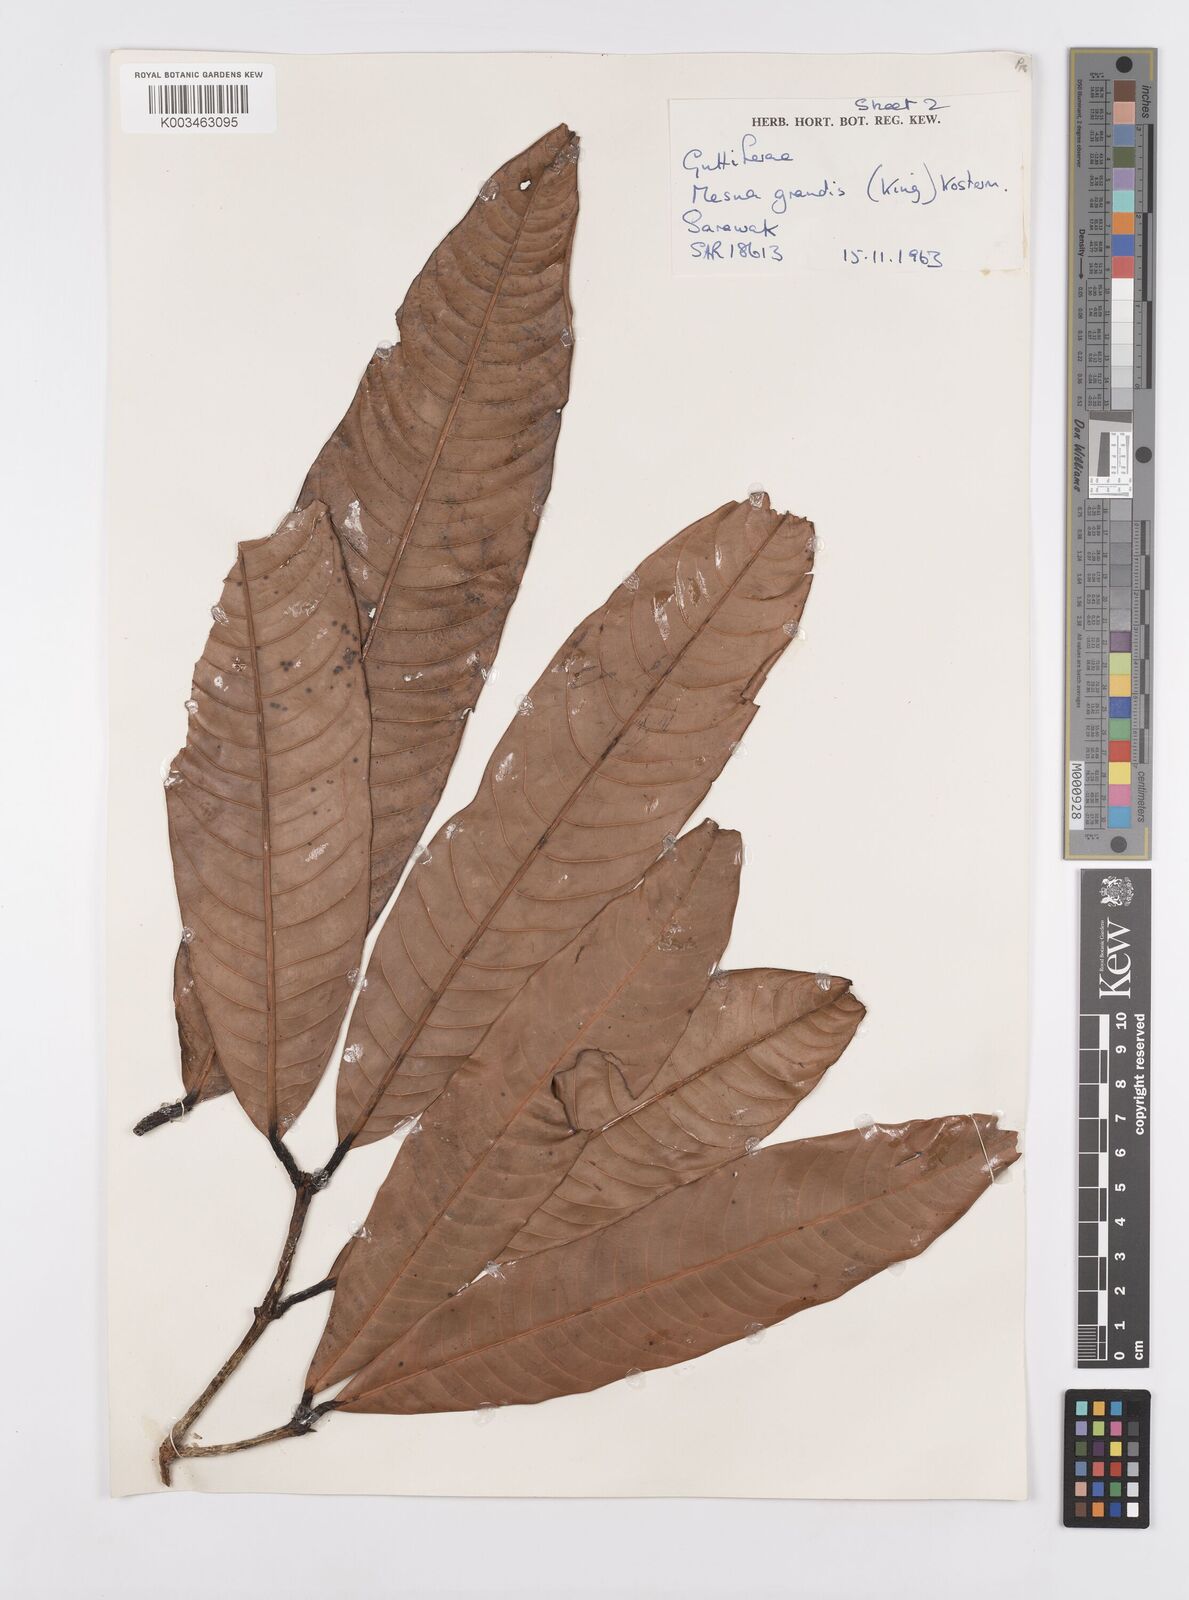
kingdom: Plantae
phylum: Tracheophyta
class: Magnoliopsida
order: Malpighiales
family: Calophyllaceae
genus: Kayea
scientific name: Kayea borneensis
